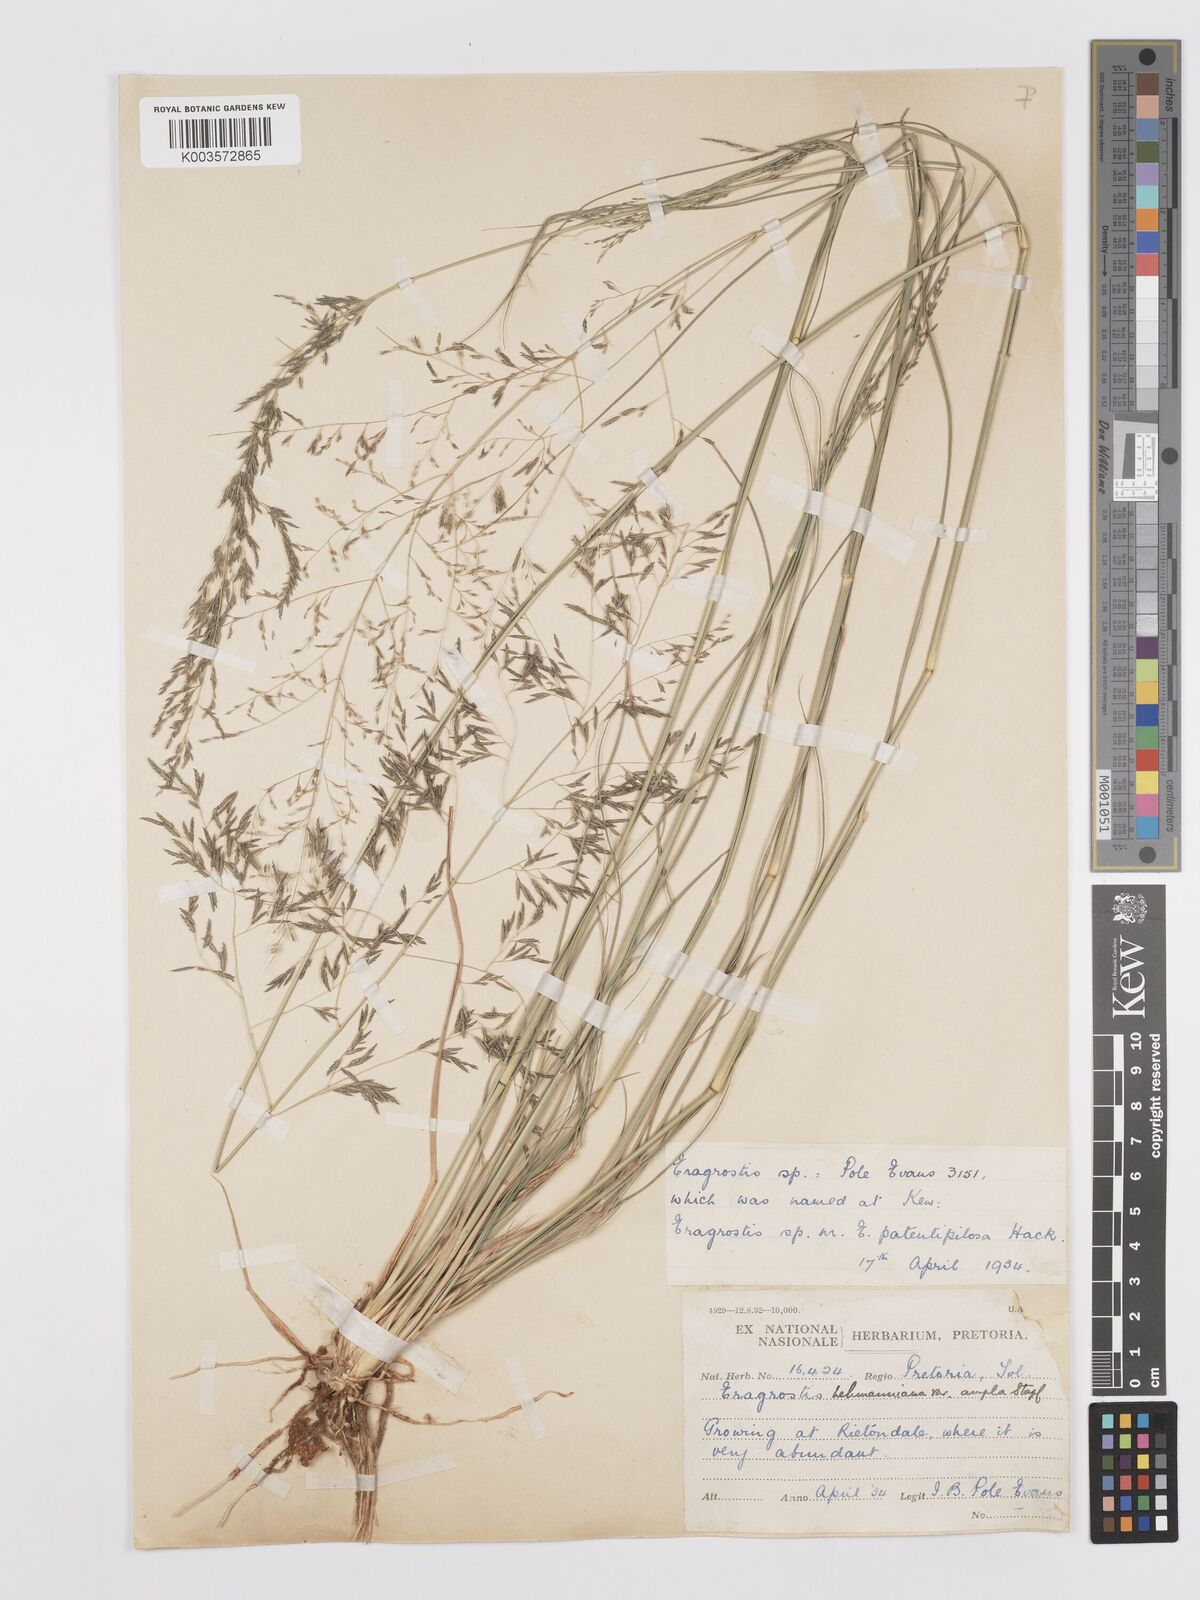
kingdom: Plantae
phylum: Tracheophyta
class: Liliopsida
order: Poales
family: Poaceae
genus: Eragrostis
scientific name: Eragrostis curvula
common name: African love-grass
